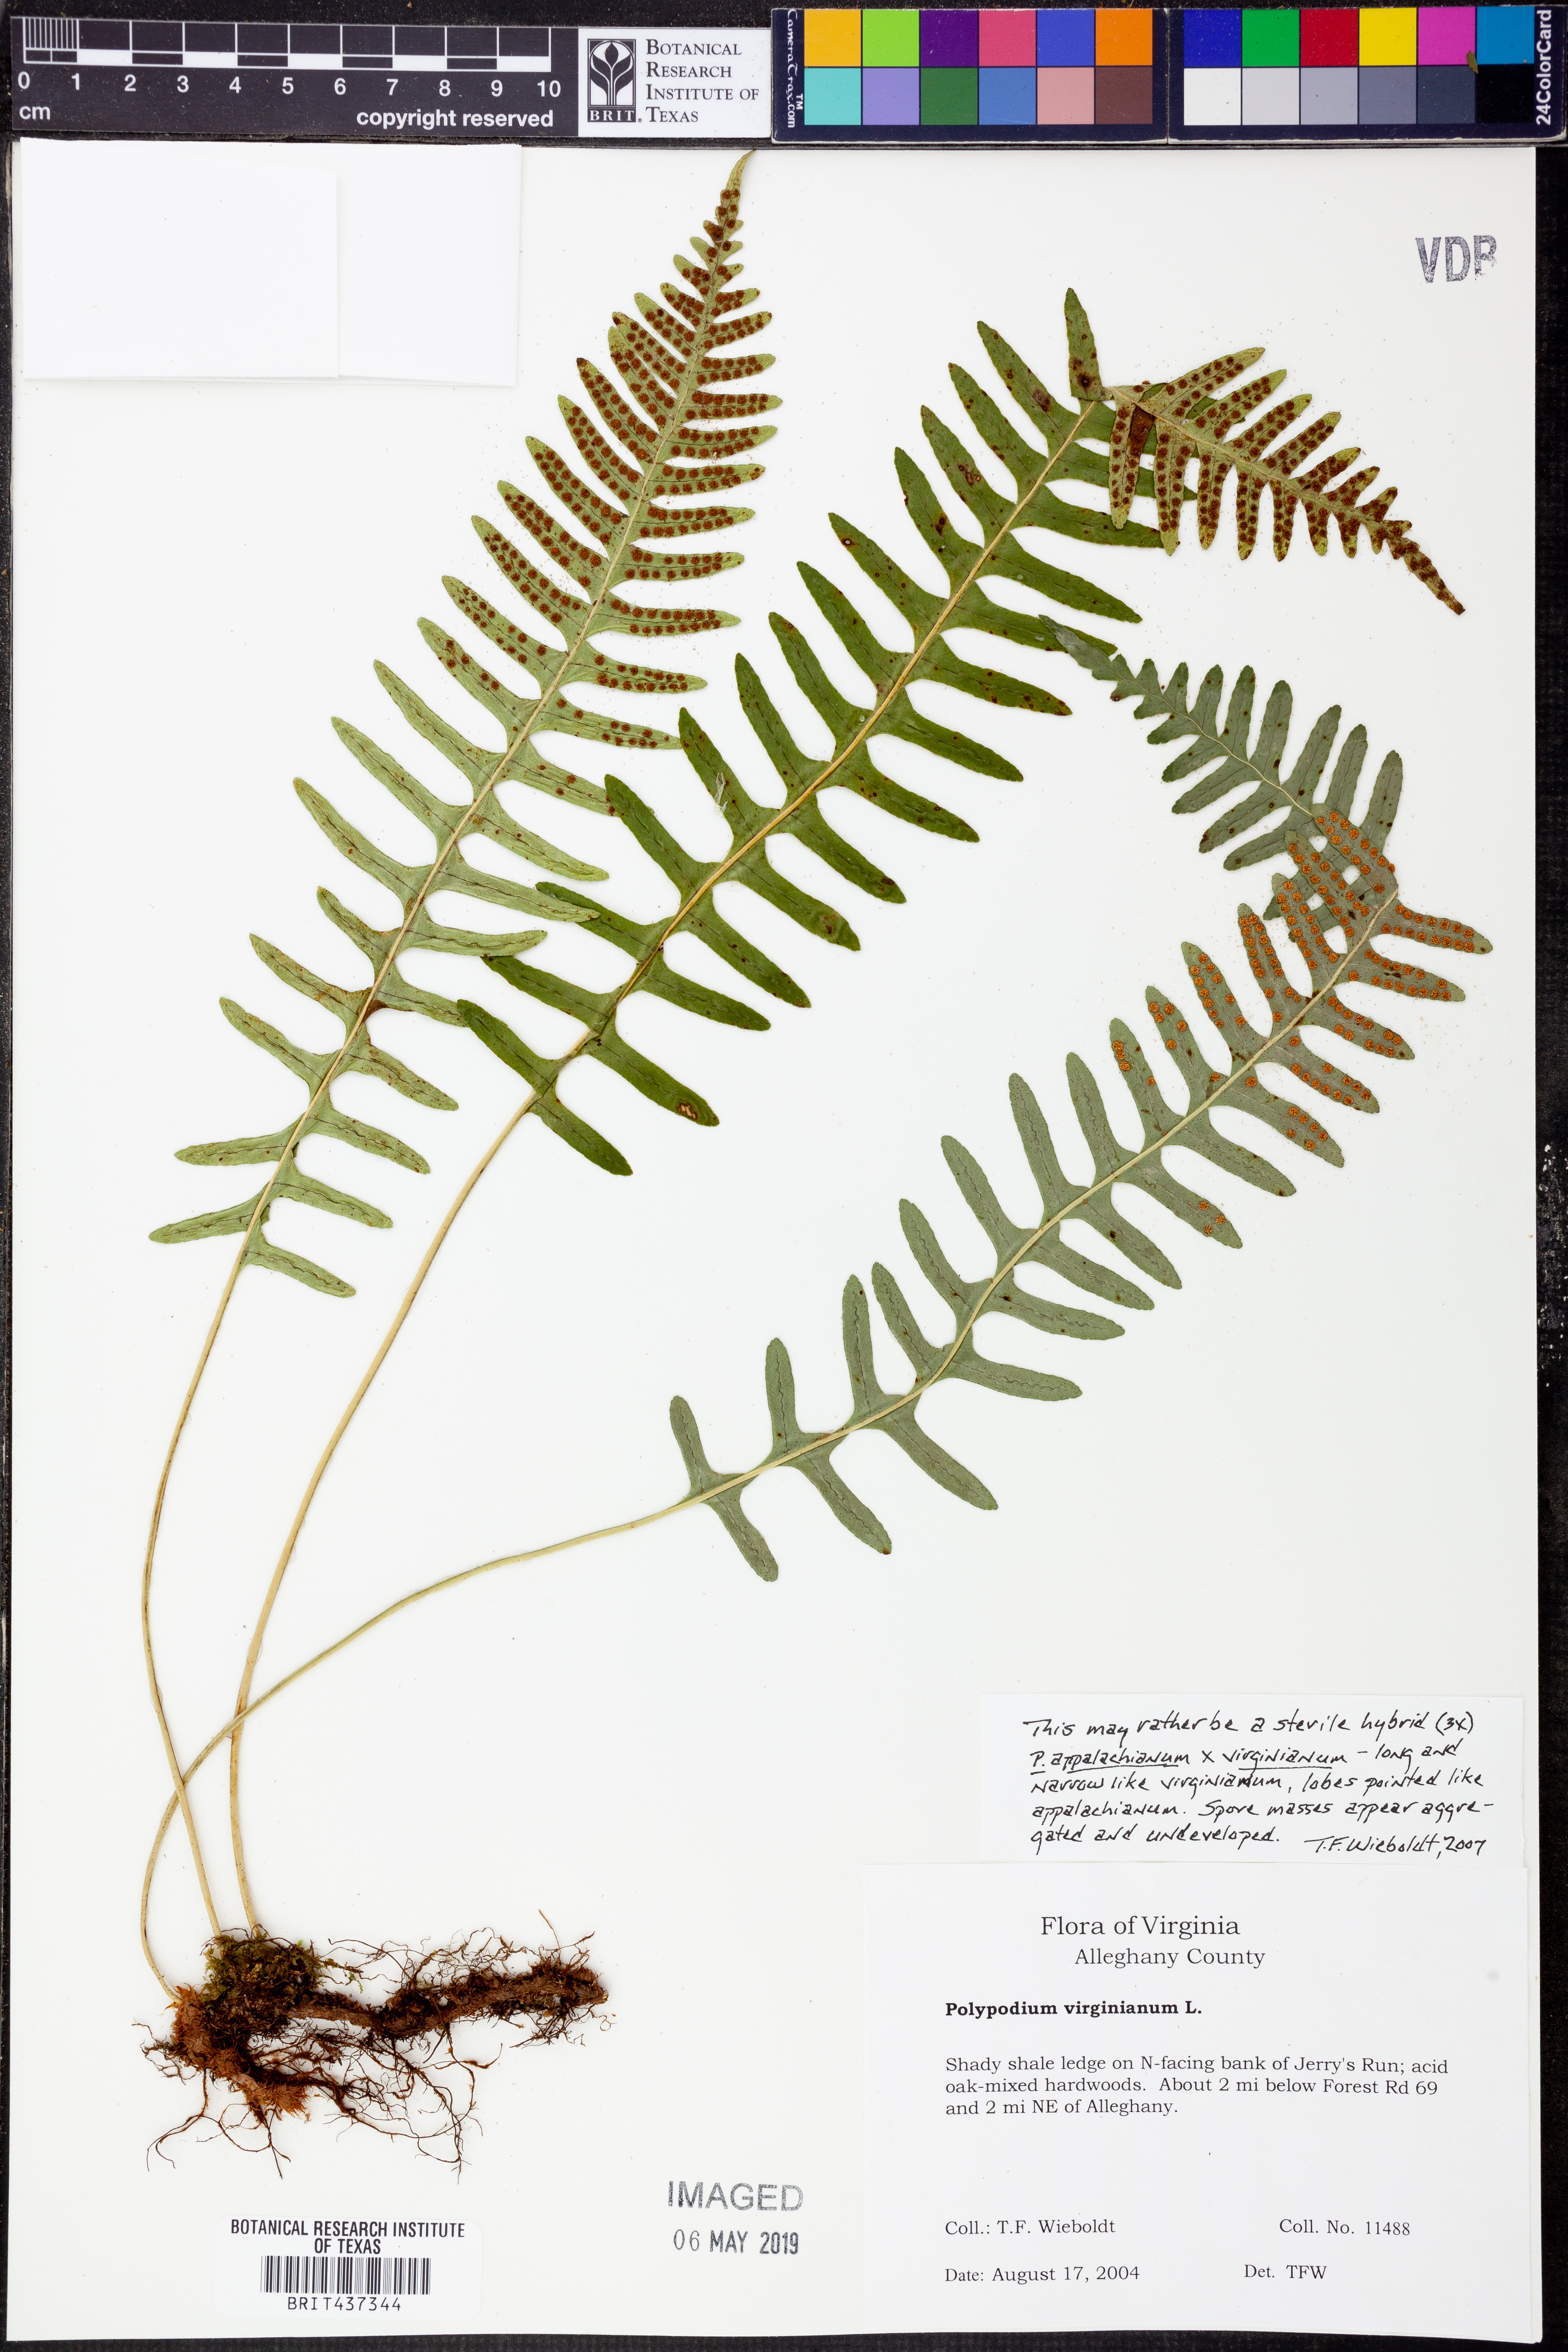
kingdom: Plantae
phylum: Tracheophyta
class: Polypodiopsida
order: Polypodiales
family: Polypodiaceae
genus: Polypodium
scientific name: Polypodium virginianum
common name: American wall fern
